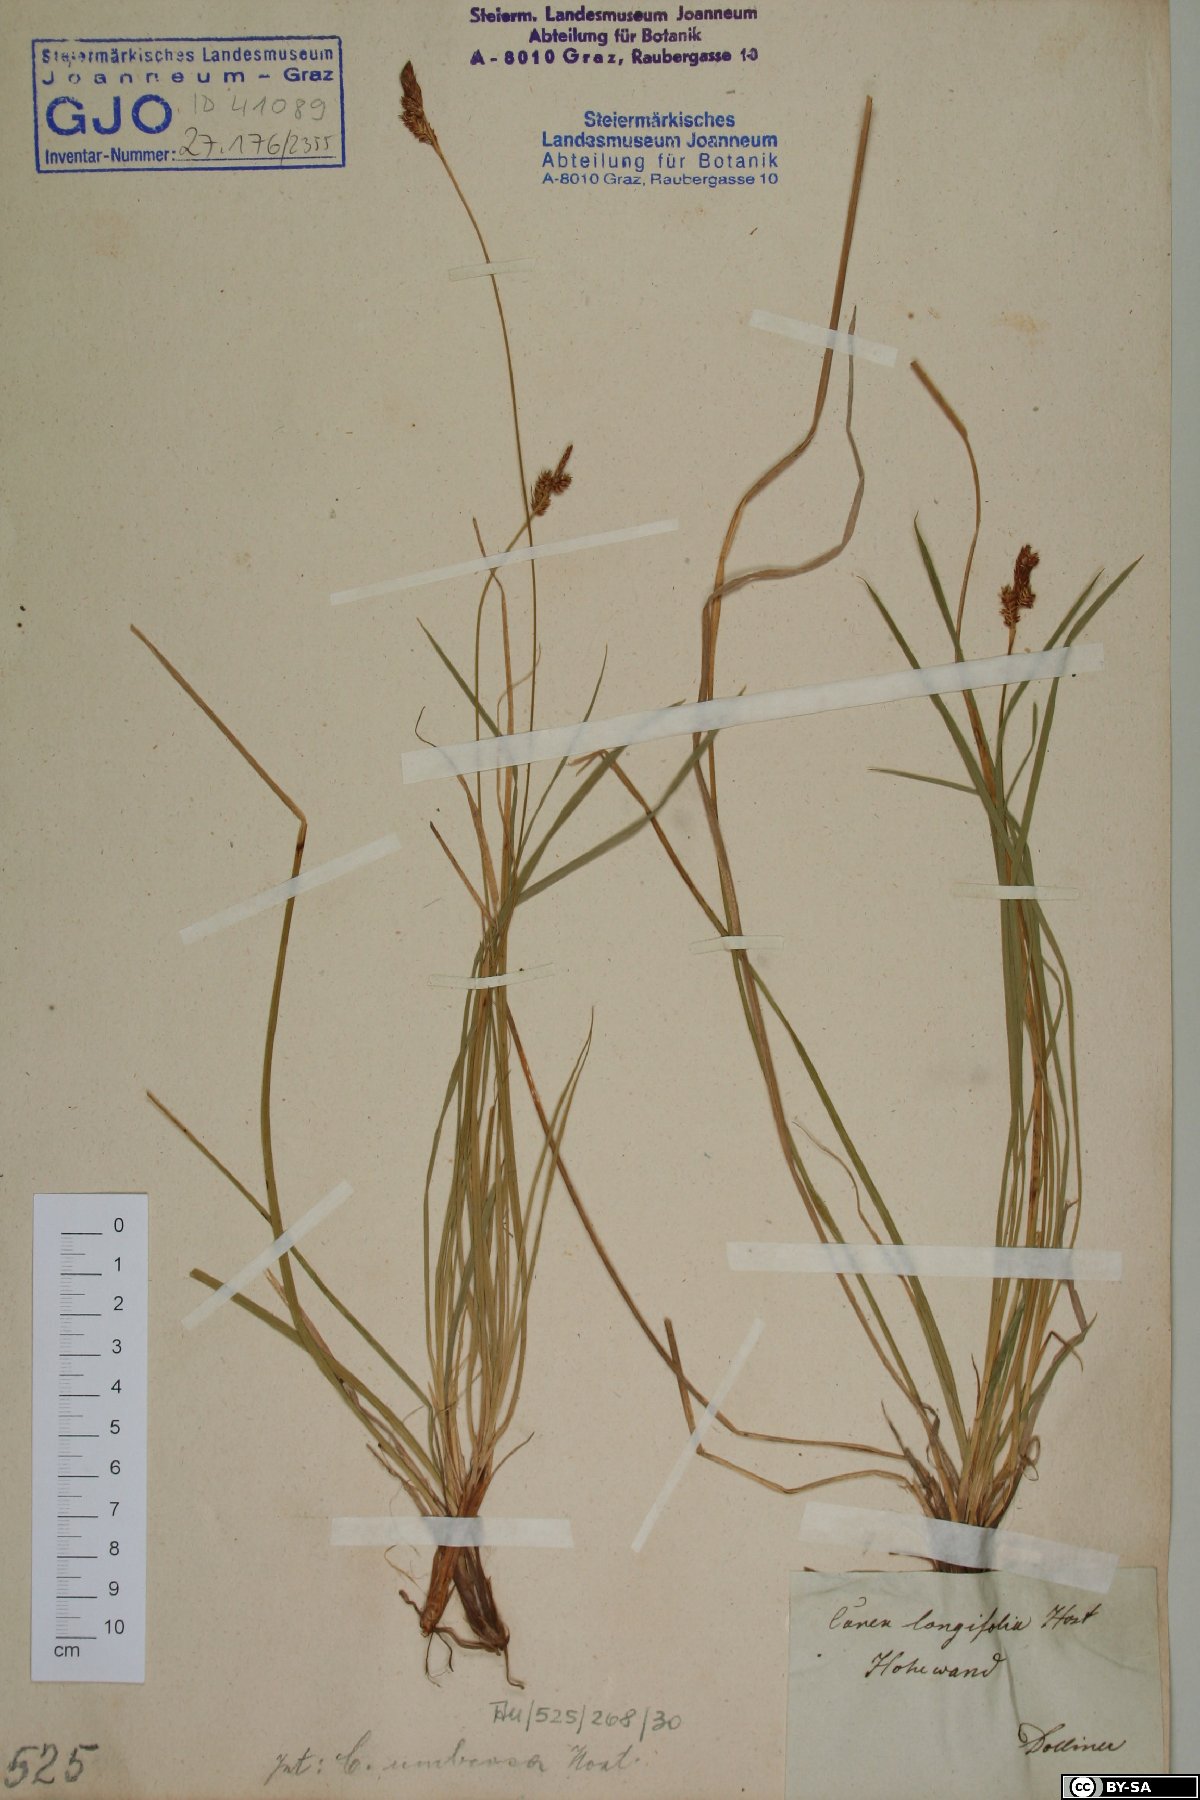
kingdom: Plantae
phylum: Tracheophyta
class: Liliopsida
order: Poales
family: Cyperaceae
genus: Carex
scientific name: Carex umbrosa
